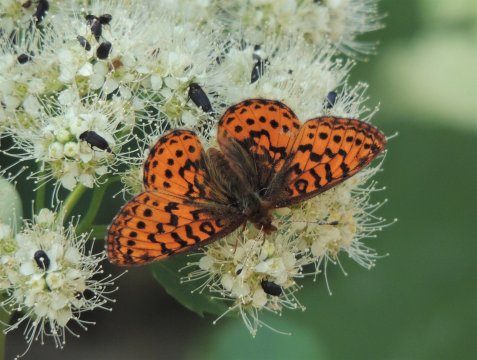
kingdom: Animalia
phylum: Arthropoda
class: Insecta
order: Lepidoptera
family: Nymphalidae
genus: Boloria
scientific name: Boloria epithore
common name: Pacific Fritillary
